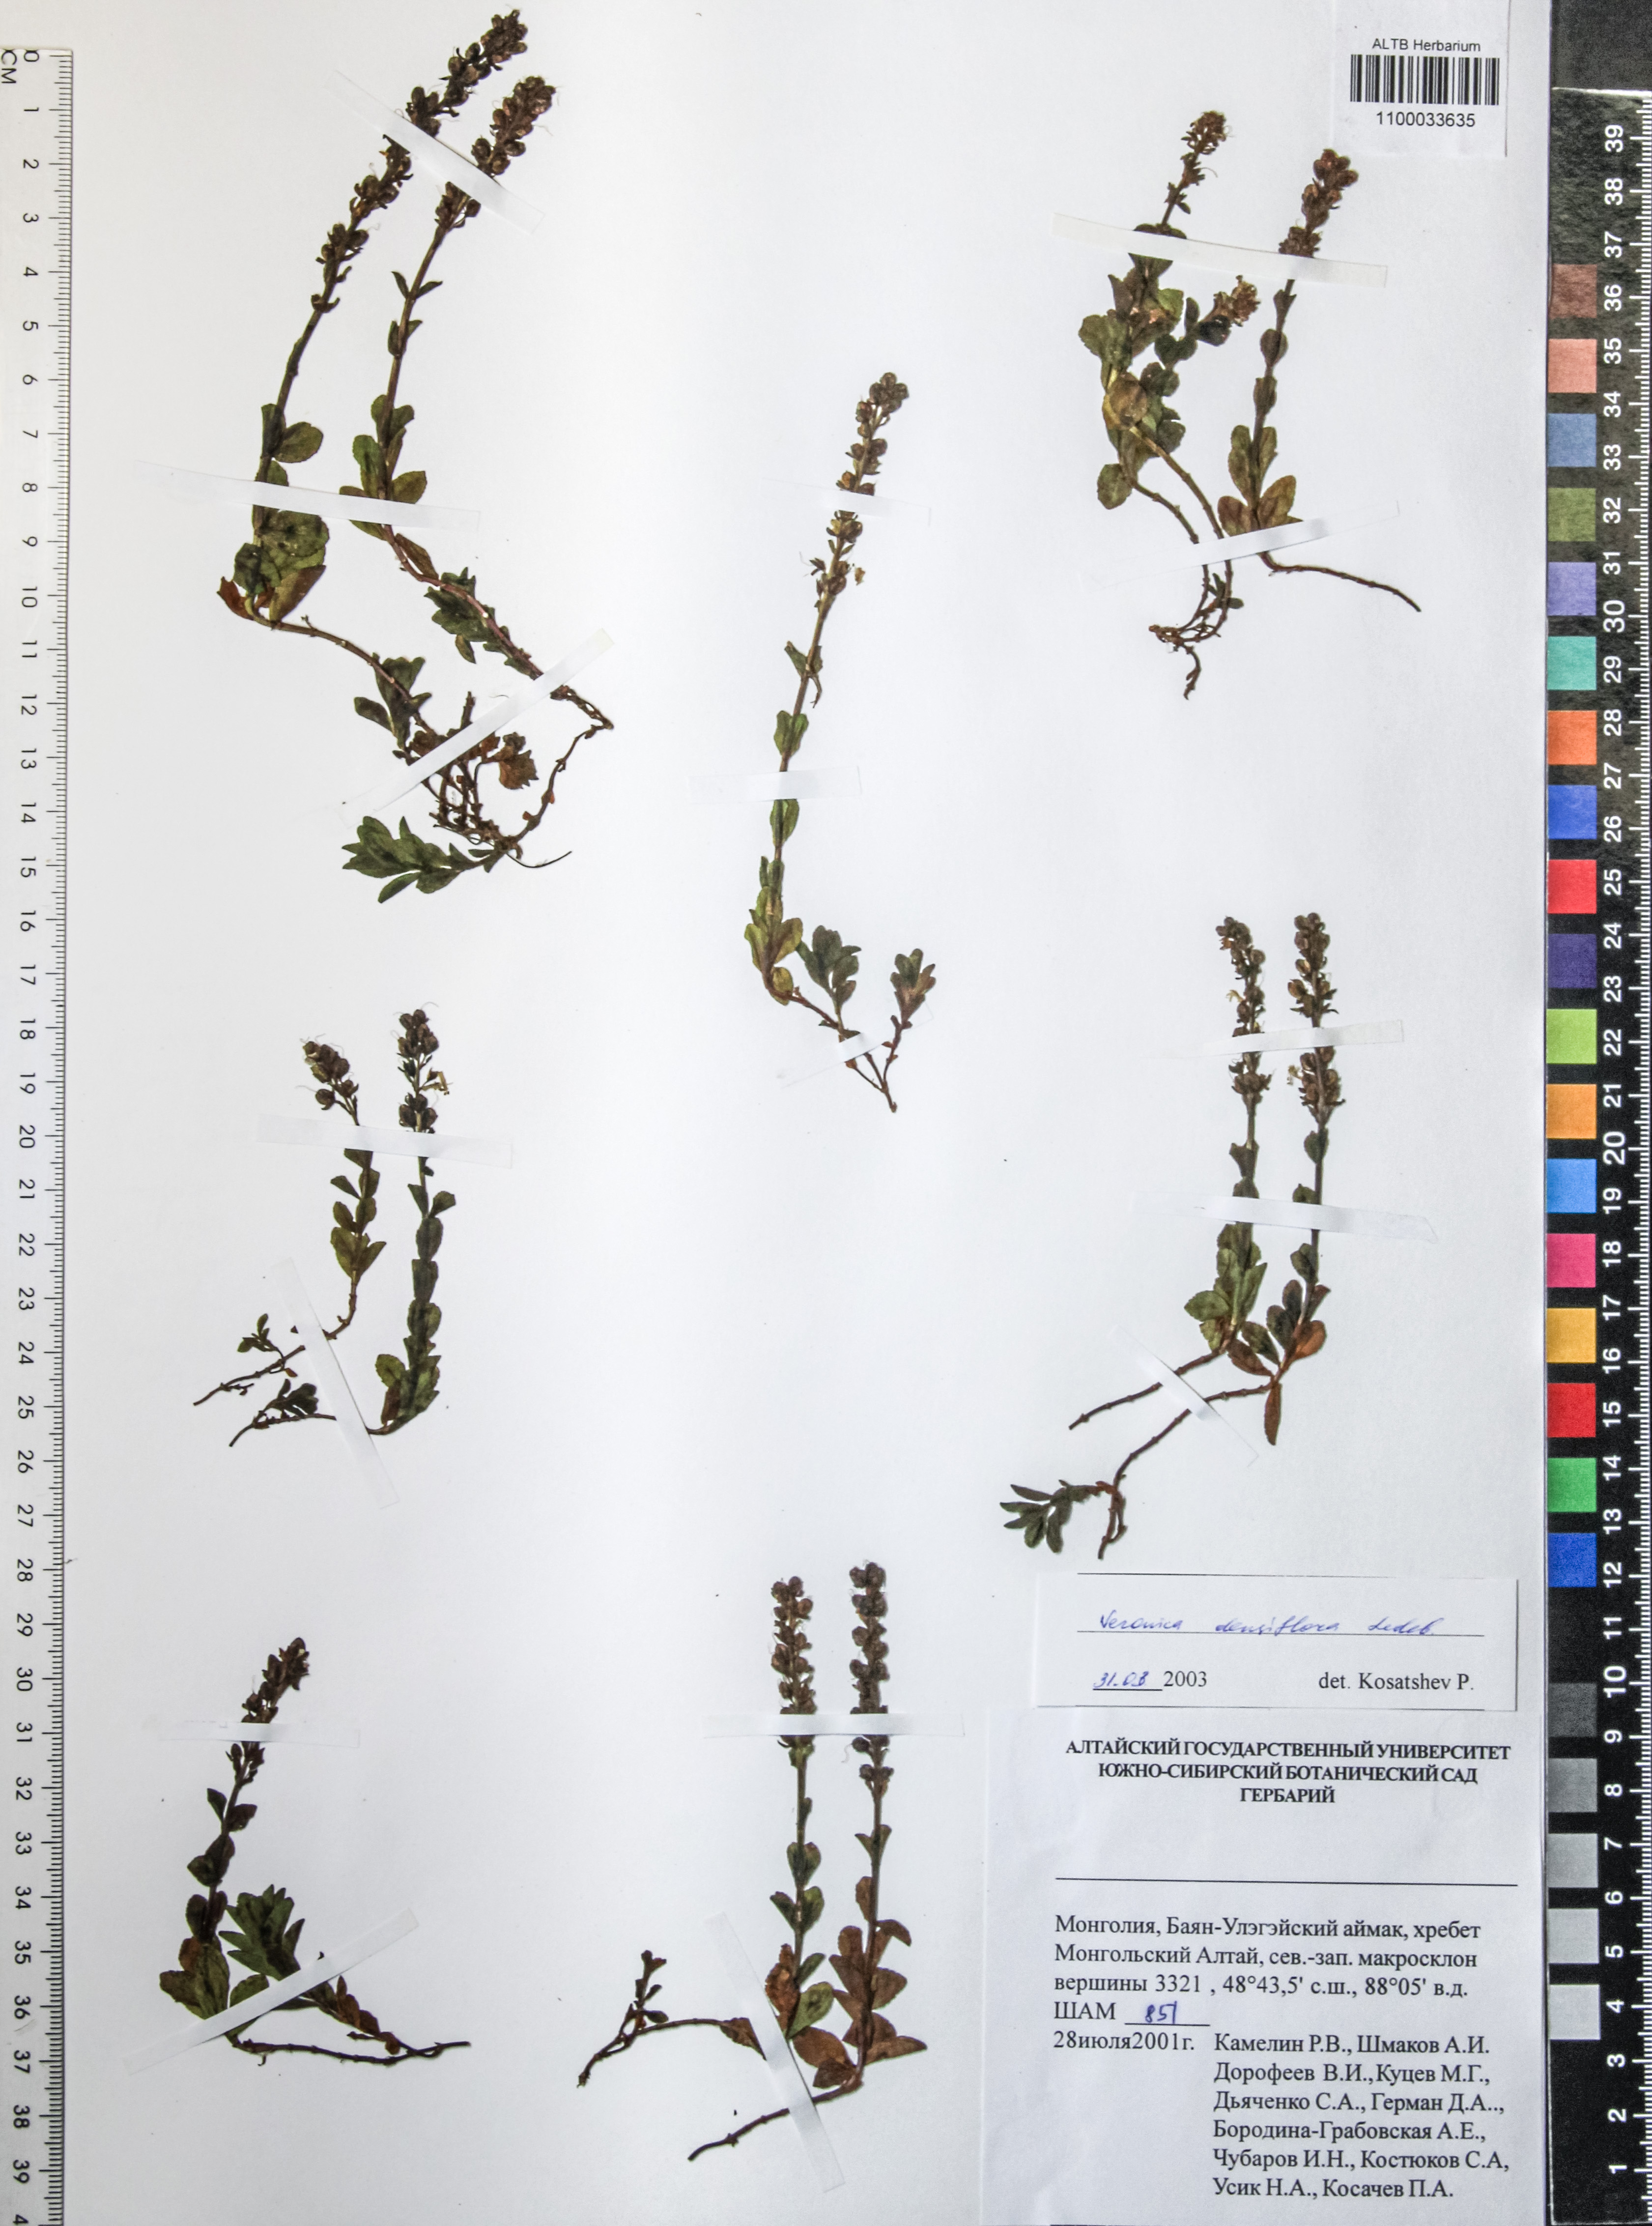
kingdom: Plantae
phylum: Tracheophyta
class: Magnoliopsida
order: Lamiales
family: Plantaginaceae
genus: Veronica
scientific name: Veronica densiflora
